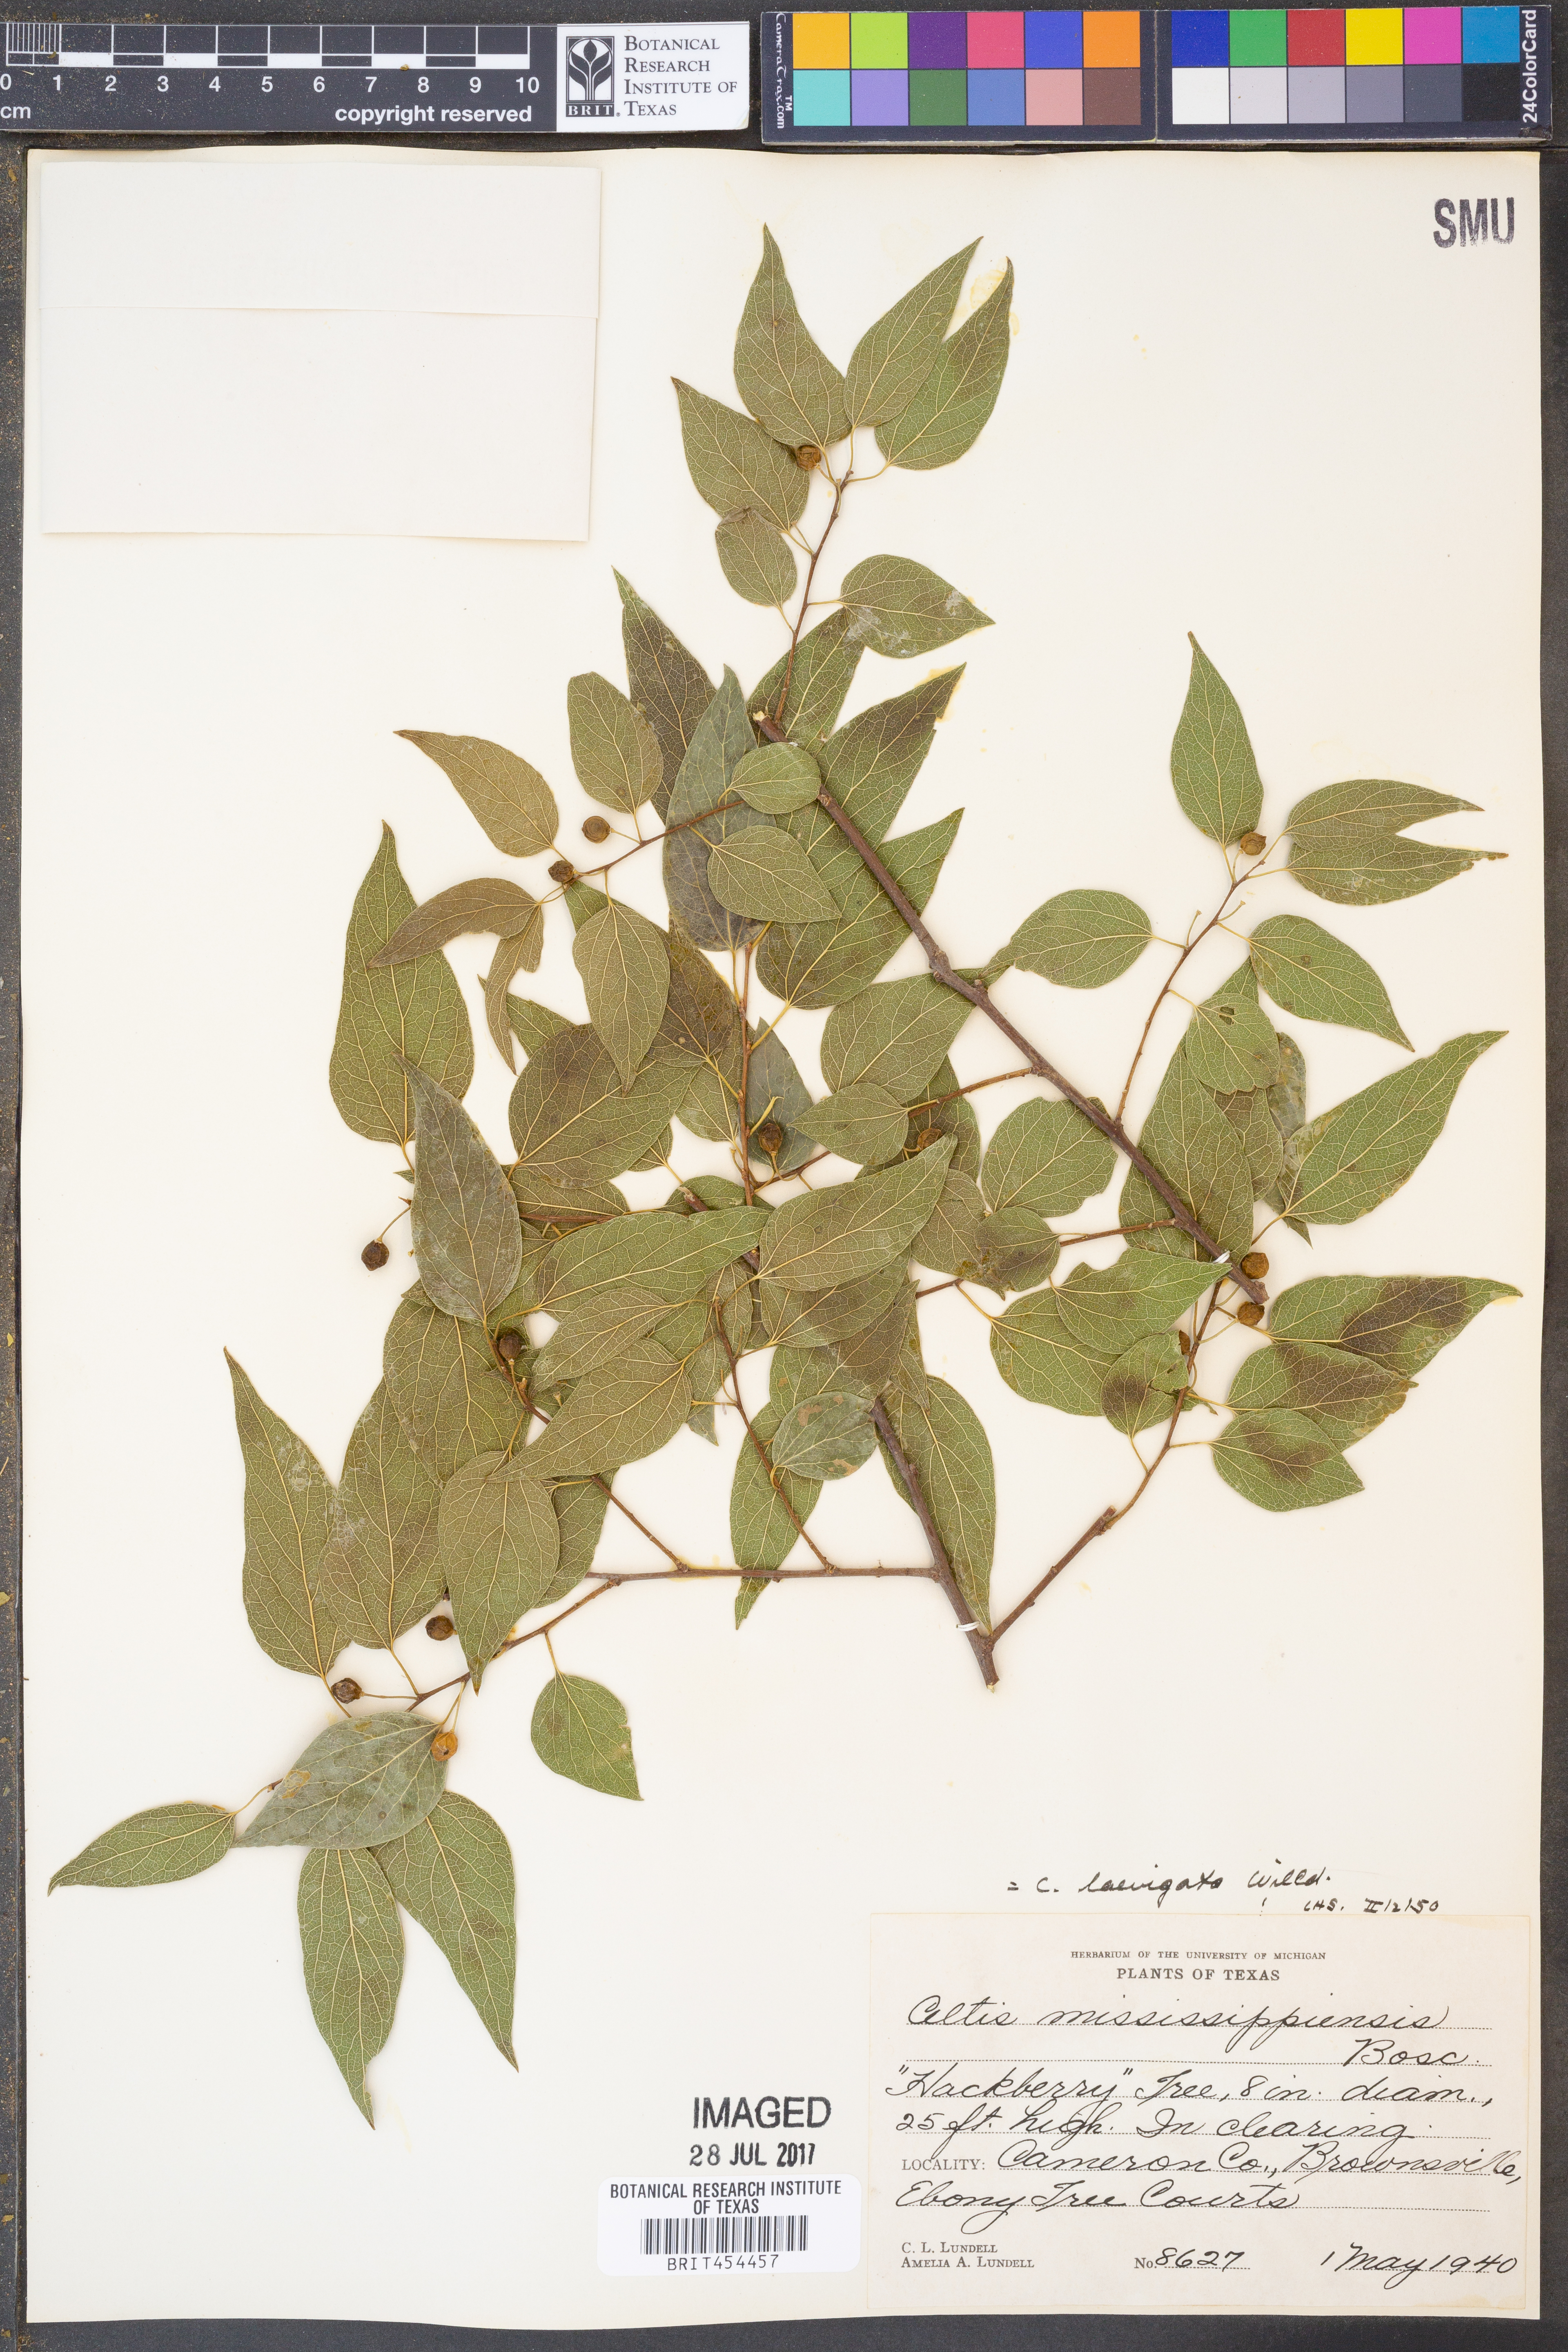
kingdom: Plantae
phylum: Tracheophyta
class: Magnoliopsida
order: Rosales
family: Cannabaceae
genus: Celtis
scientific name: Celtis laevigata
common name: Sugarberry
